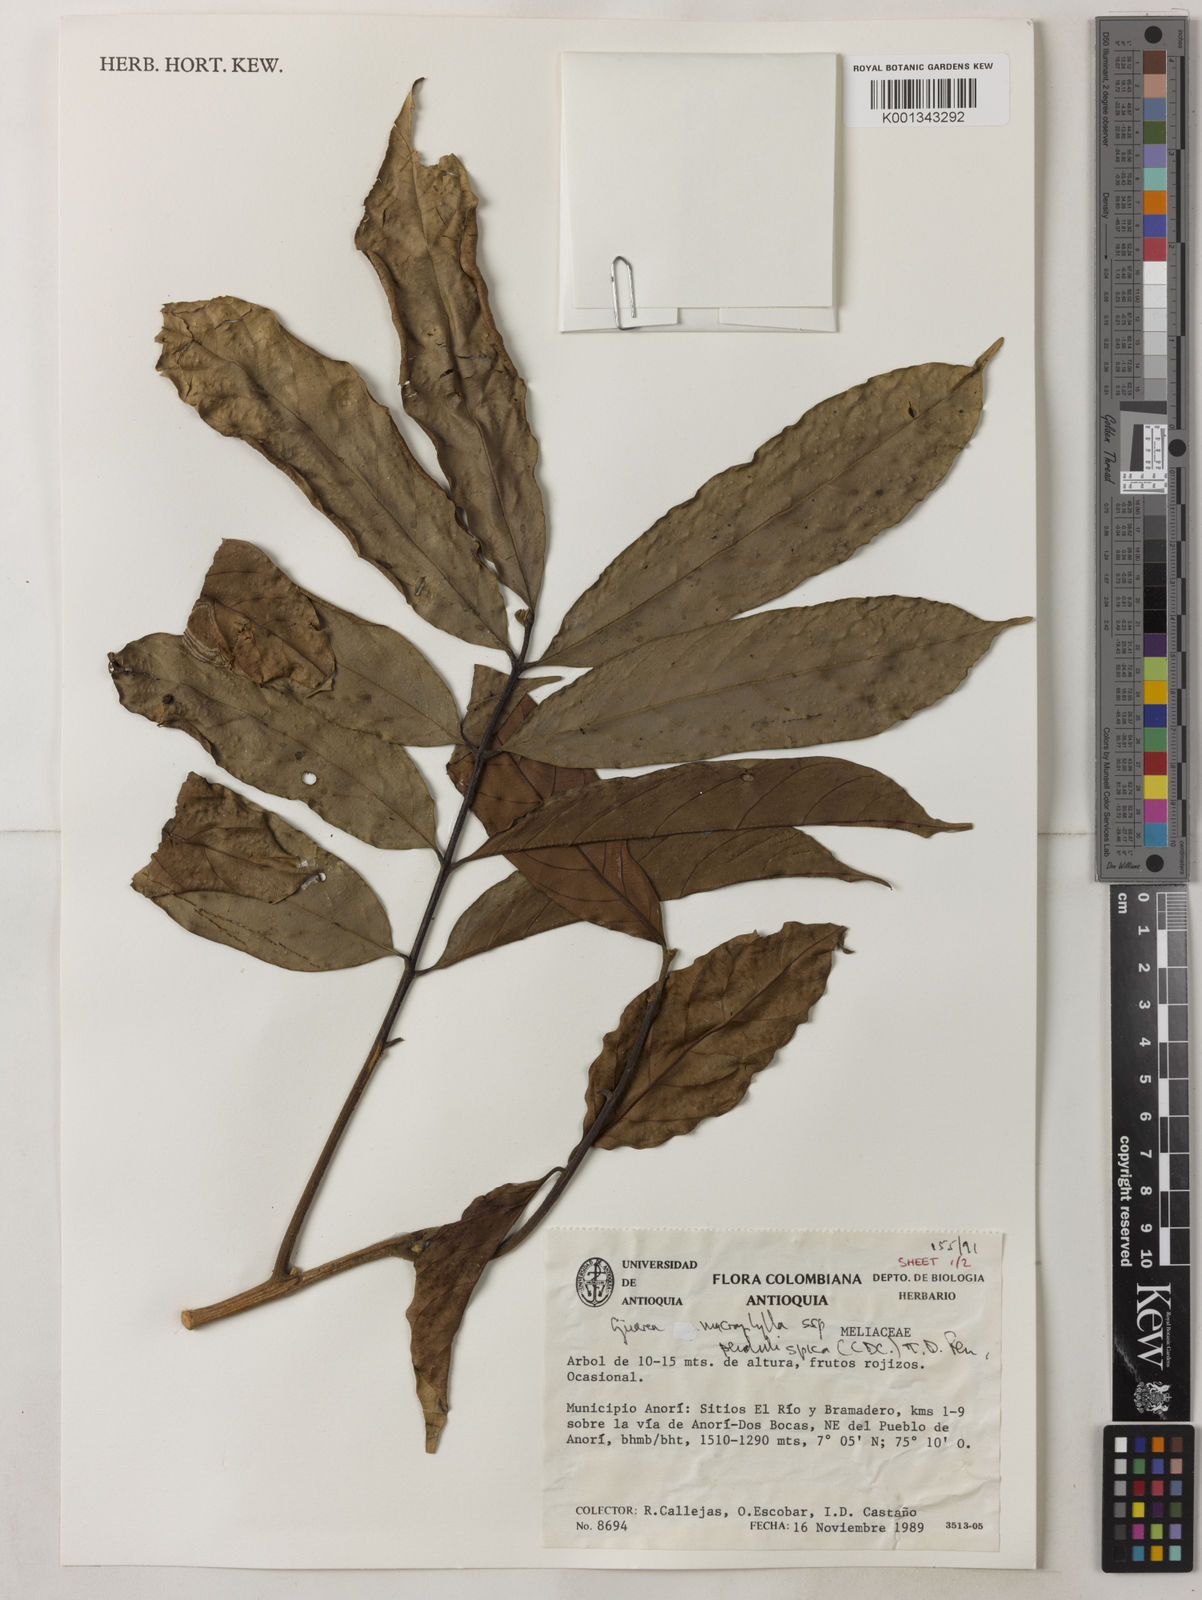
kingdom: Plantae
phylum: Tracheophyta
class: Magnoliopsida
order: Sapindales
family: Meliaceae
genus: Guarea
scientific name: Guarea macrophylla
